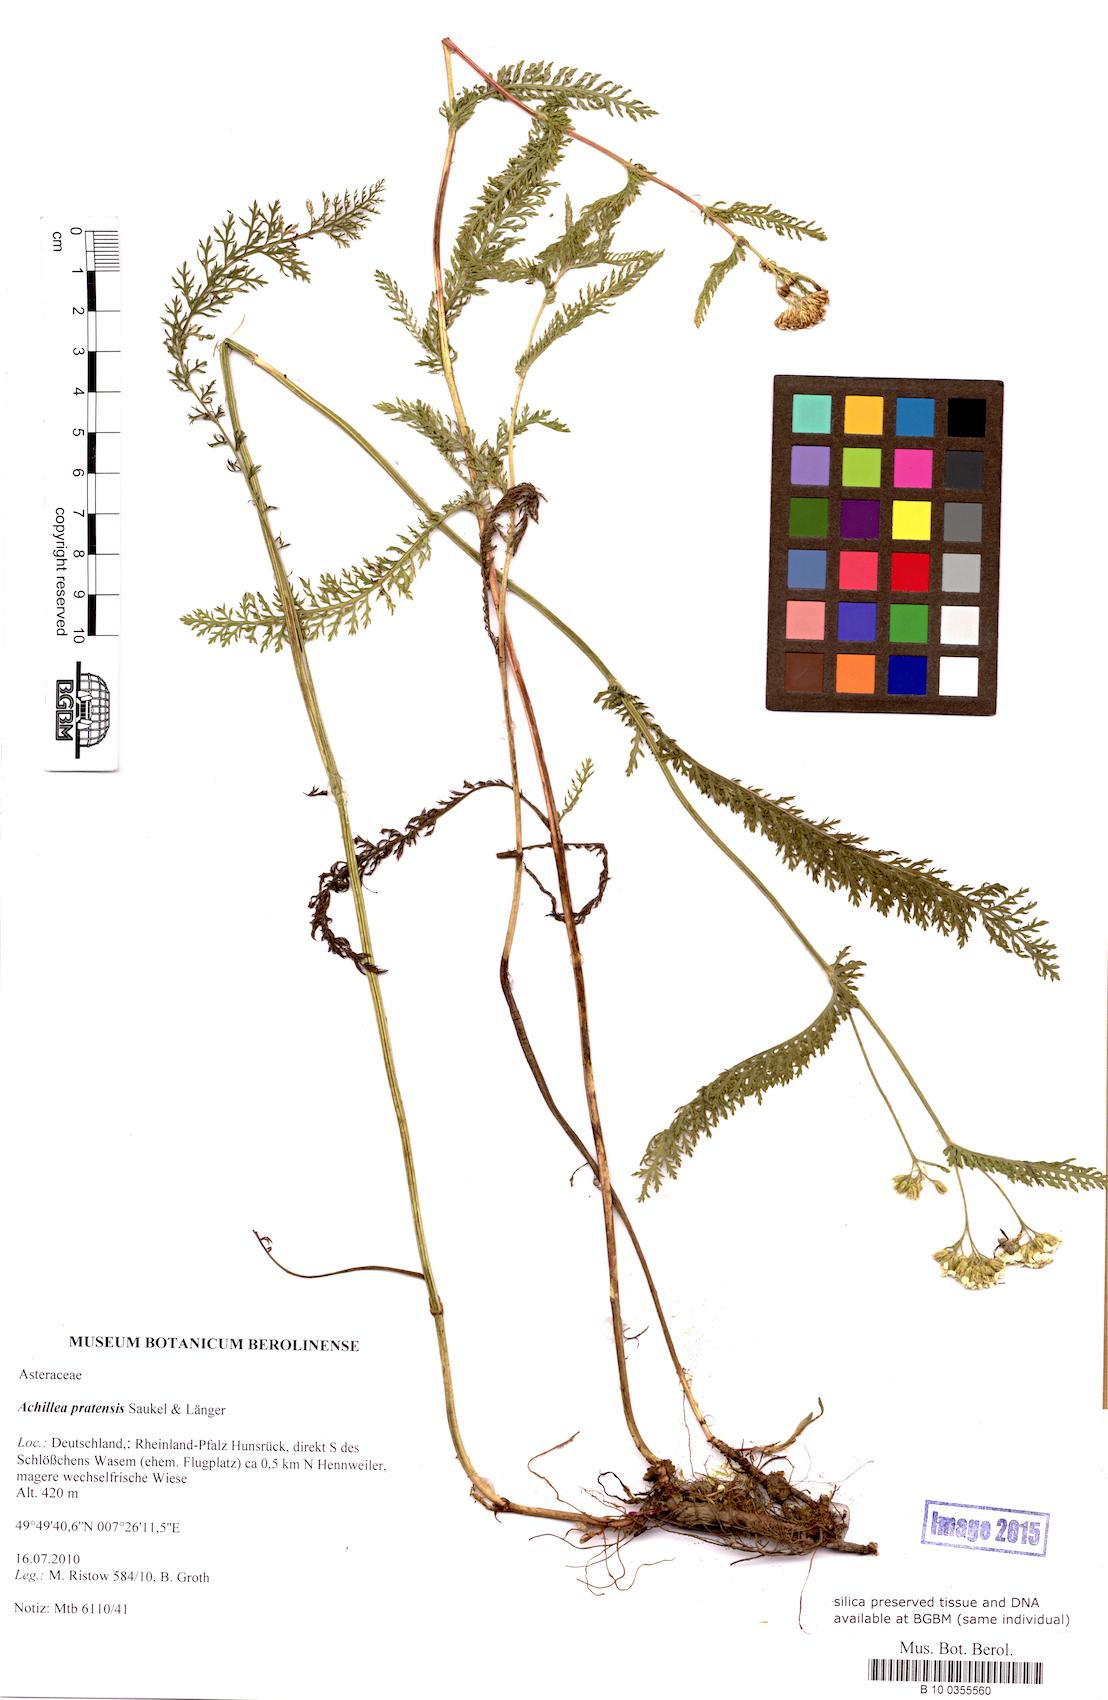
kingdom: Plantae
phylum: Tracheophyta
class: Magnoliopsida
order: Asterales
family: Asteraceae
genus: Achillea
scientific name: Achillea pratensis
